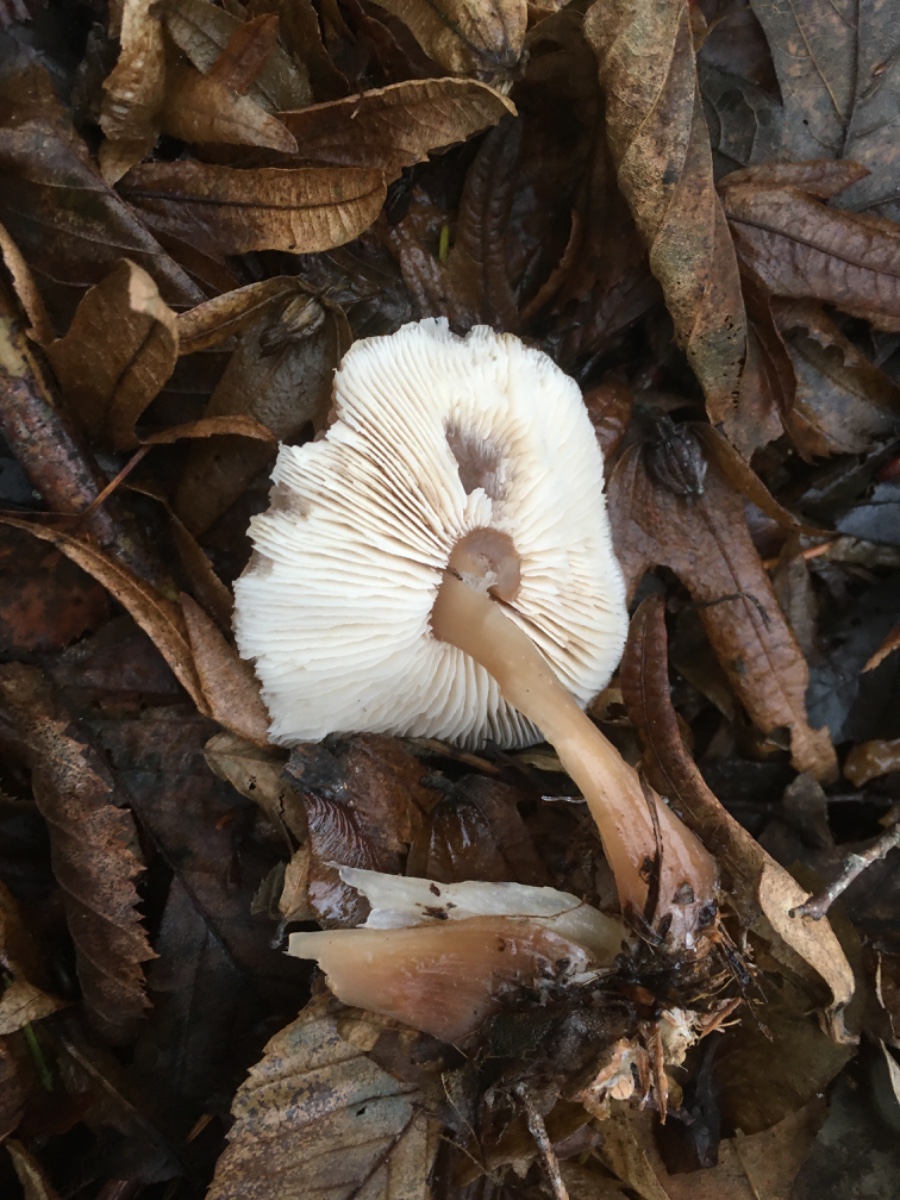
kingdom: Fungi
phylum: Basidiomycota
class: Agaricomycetes
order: Agaricales
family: Omphalotaceae
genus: Rhodocollybia
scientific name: Rhodocollybia asema
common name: horngrå fladhat
